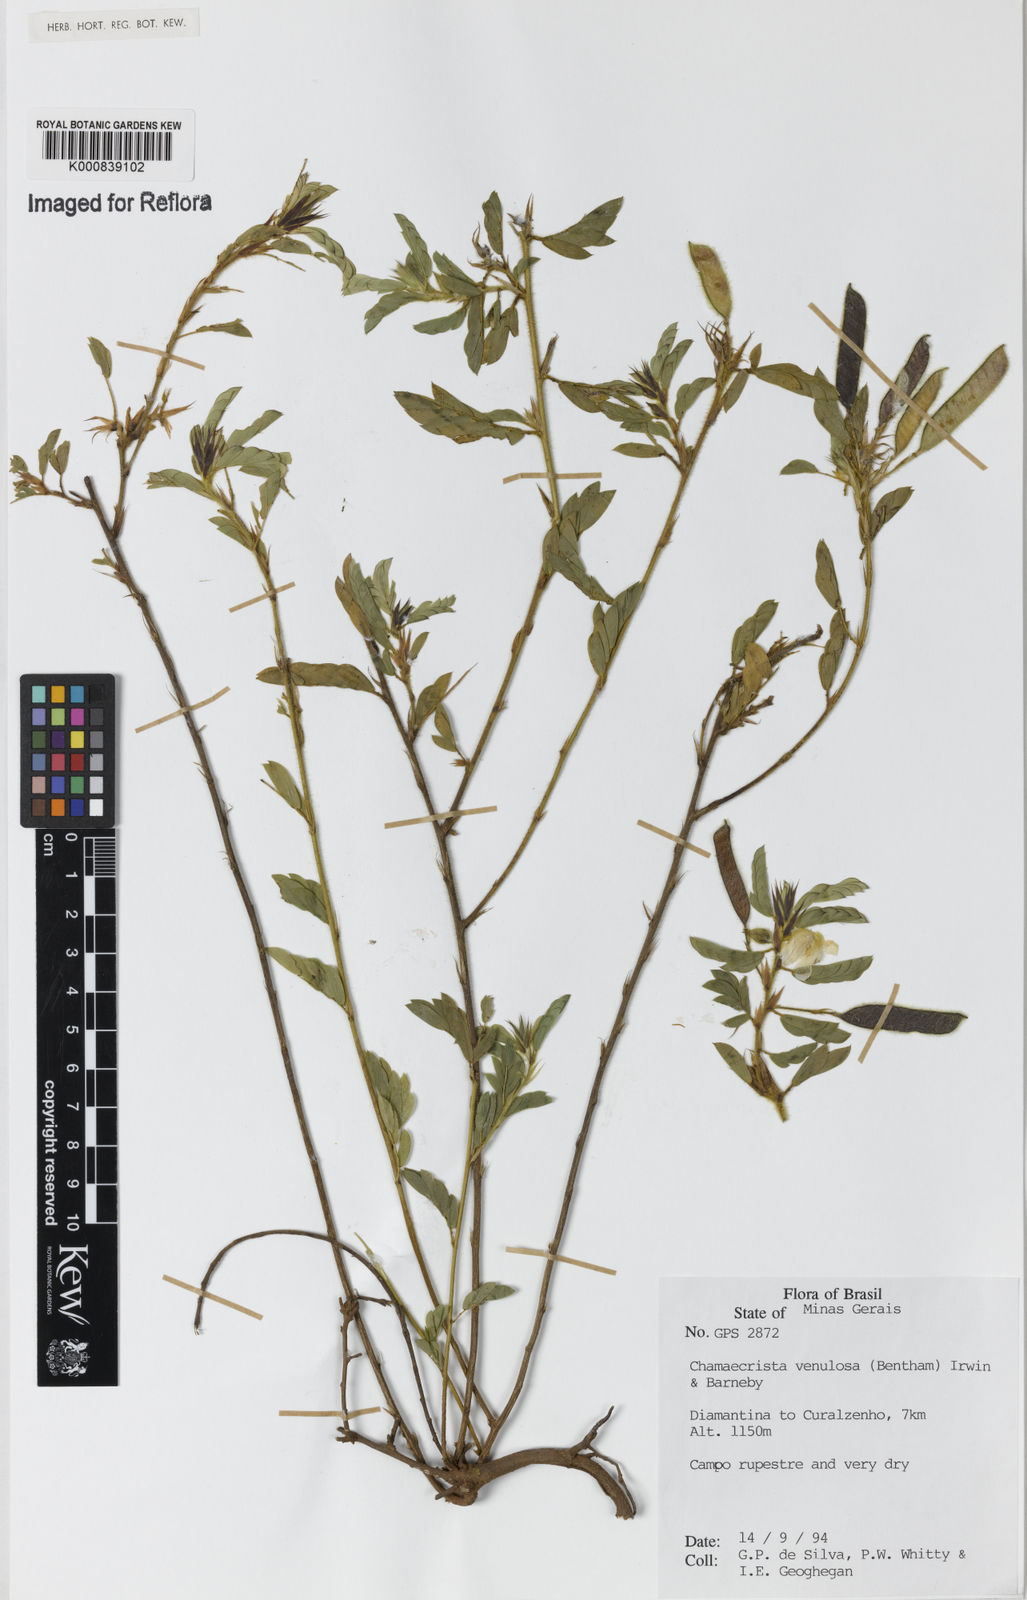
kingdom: Plantae
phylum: Tracheophyta
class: Magnoliopsida
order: Fabales
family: Fabaceae
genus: Chamaecrista
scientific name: Chamaecrista venulosa
